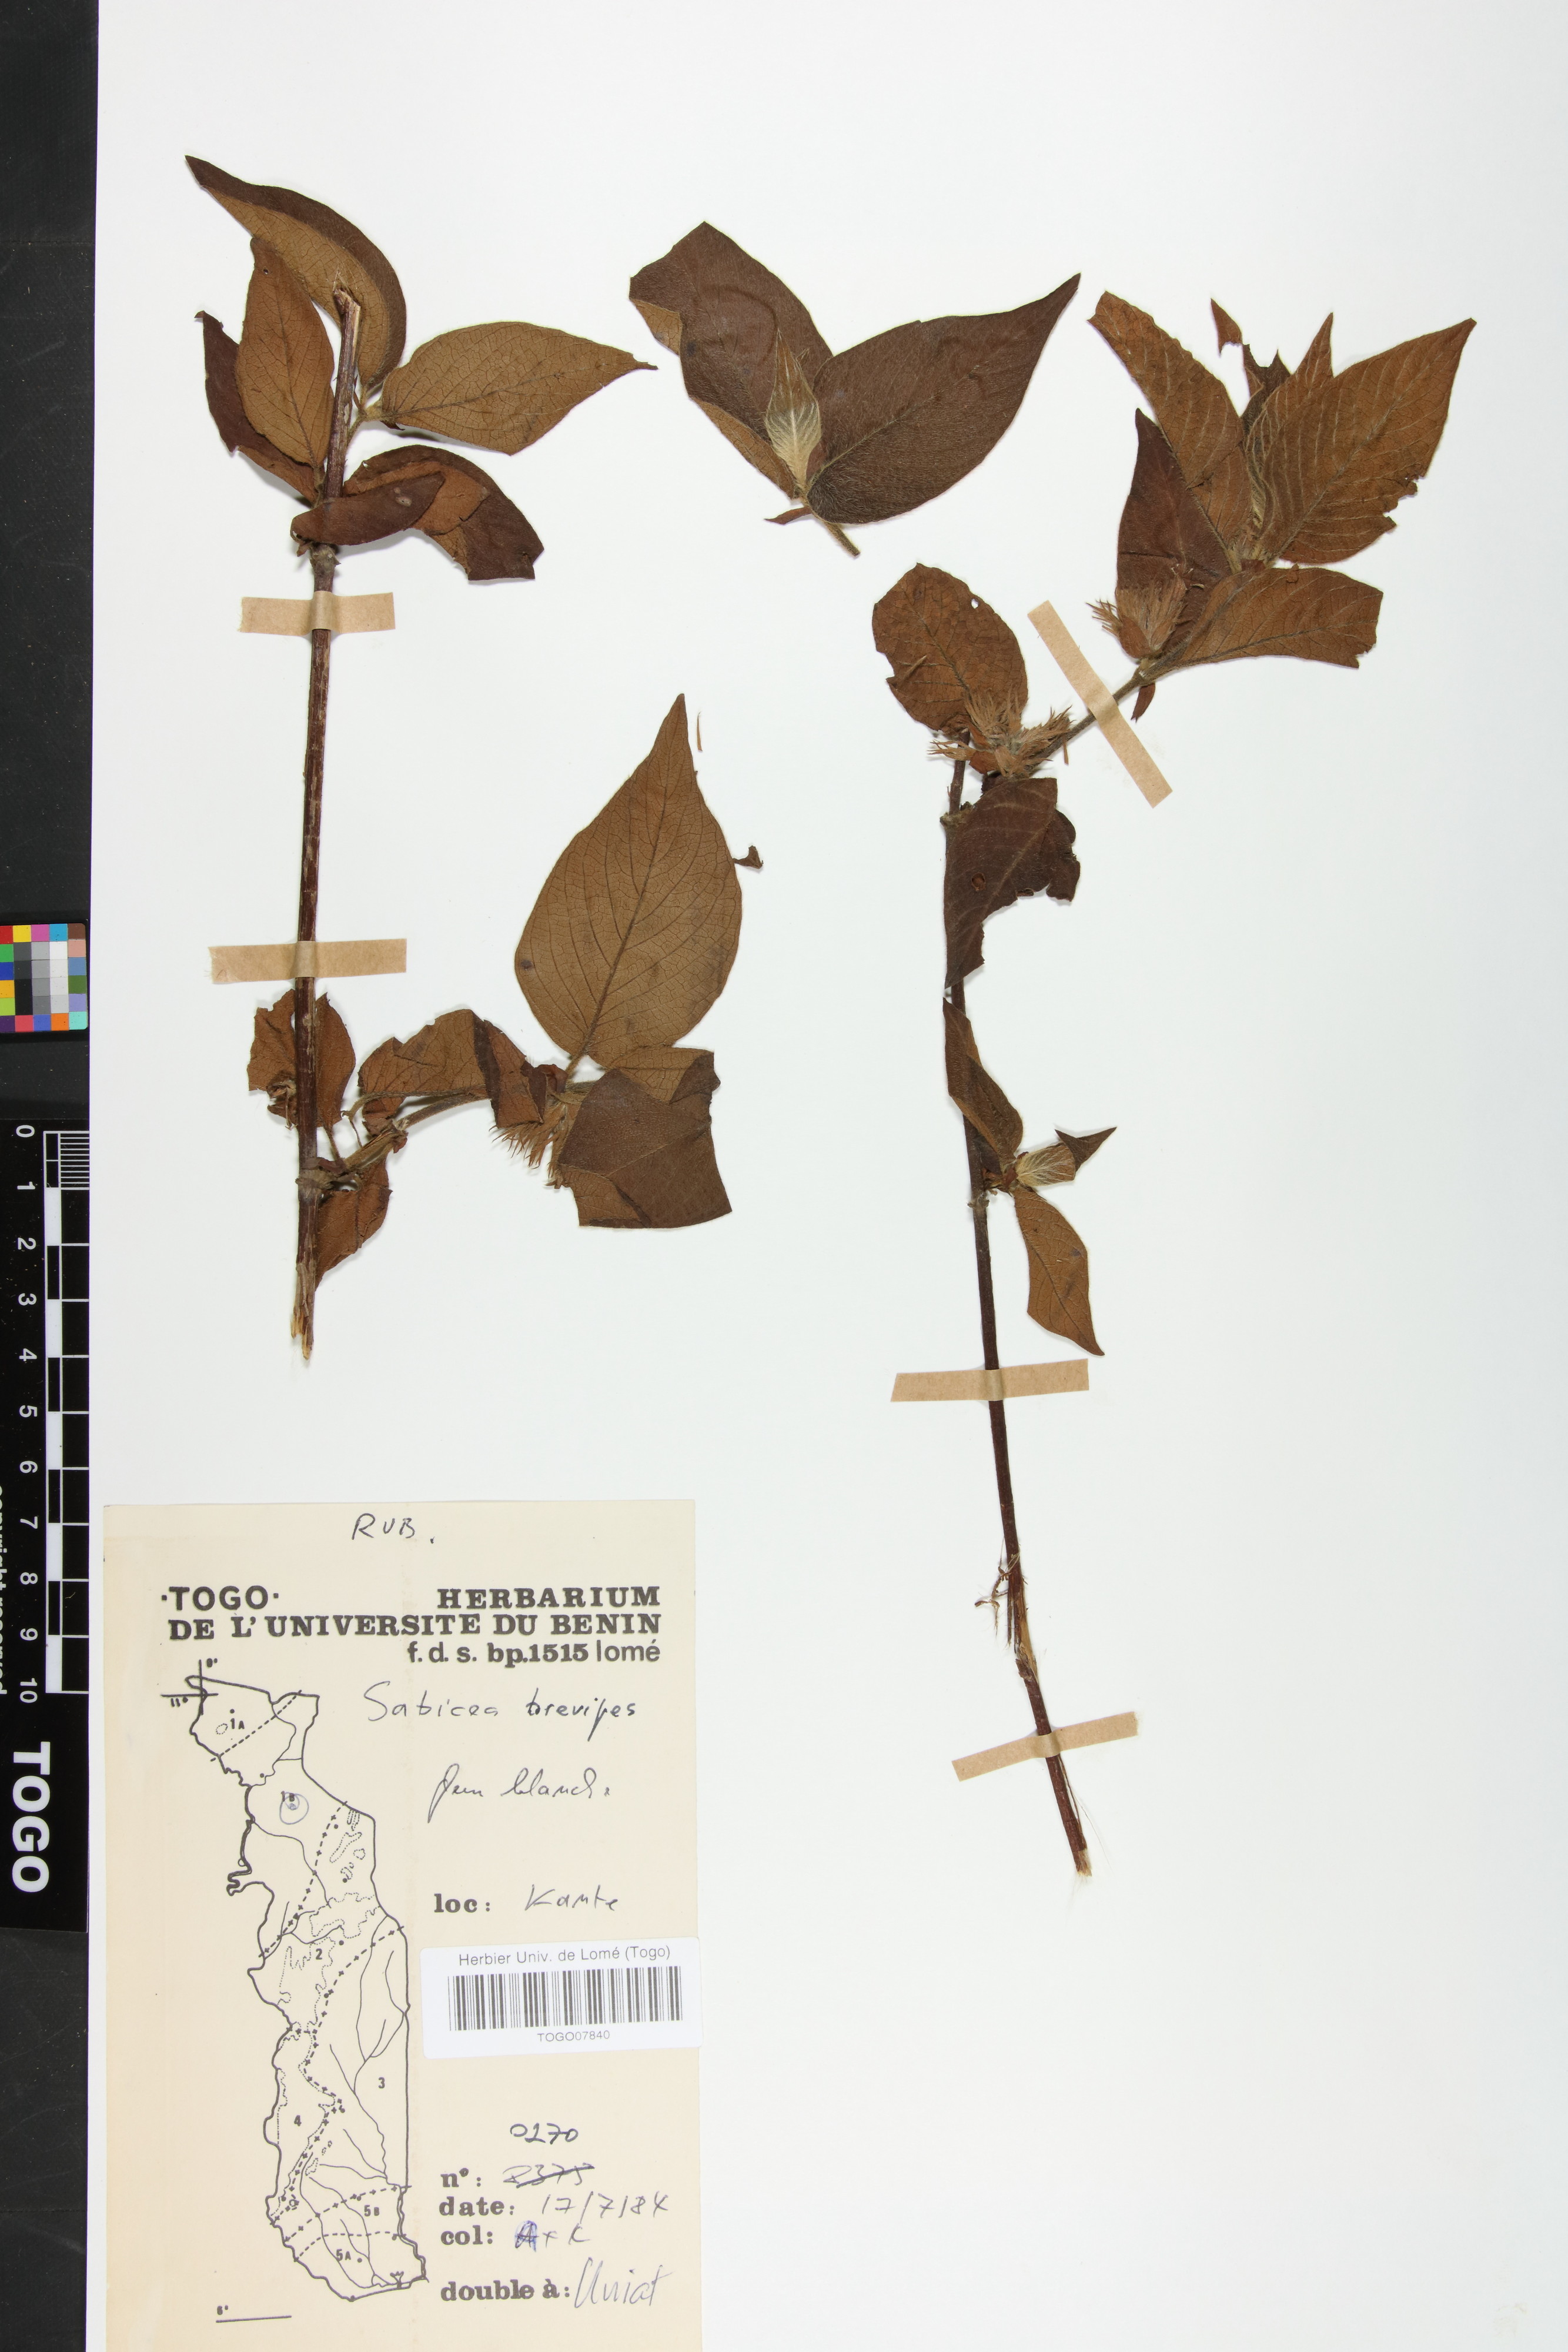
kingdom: Plantae
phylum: Tracheophyta
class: Magnoliopsida
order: Gentianales
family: Rubiaceae
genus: Sabicea
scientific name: Sabicea brevipes
